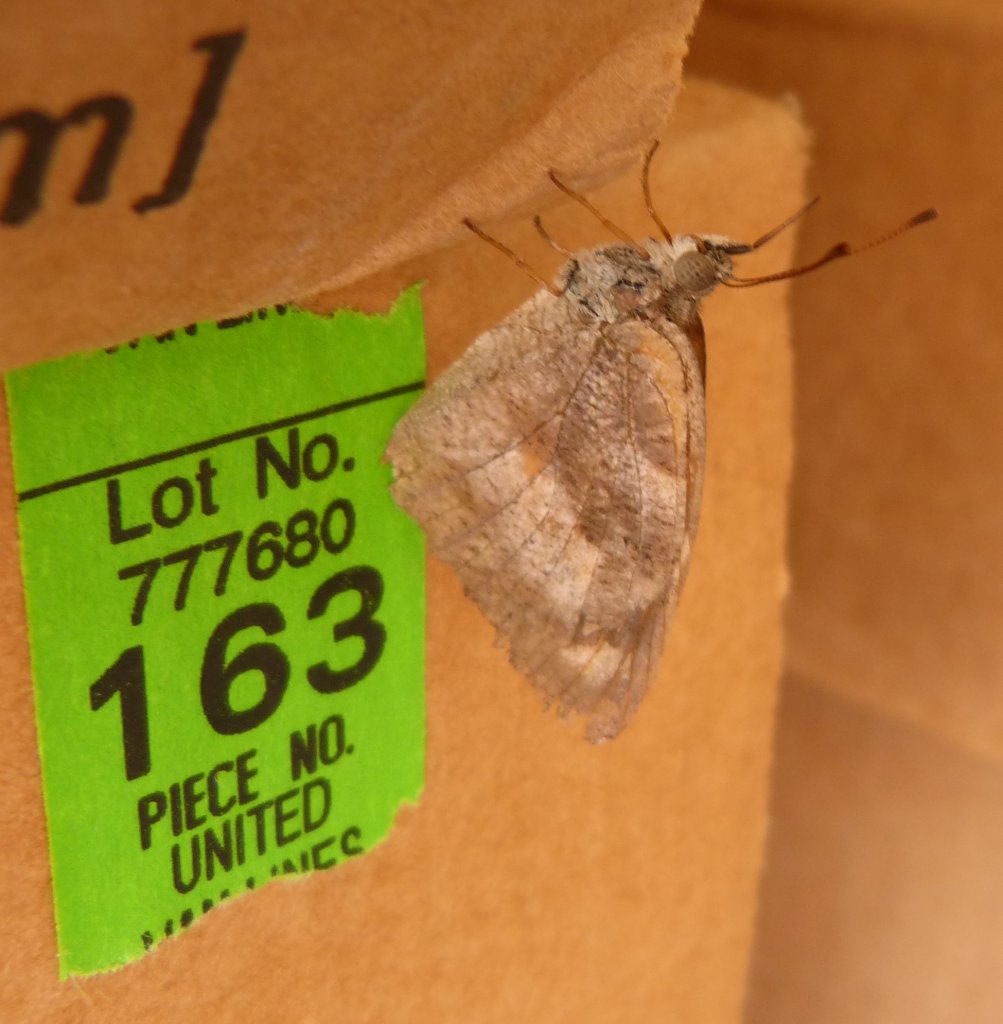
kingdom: Animalia
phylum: Arthropoda
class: Insecta
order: Lepidoptera
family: Nymphalidae
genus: Libytheana
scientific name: Libytheana carinenta
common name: American Snout
